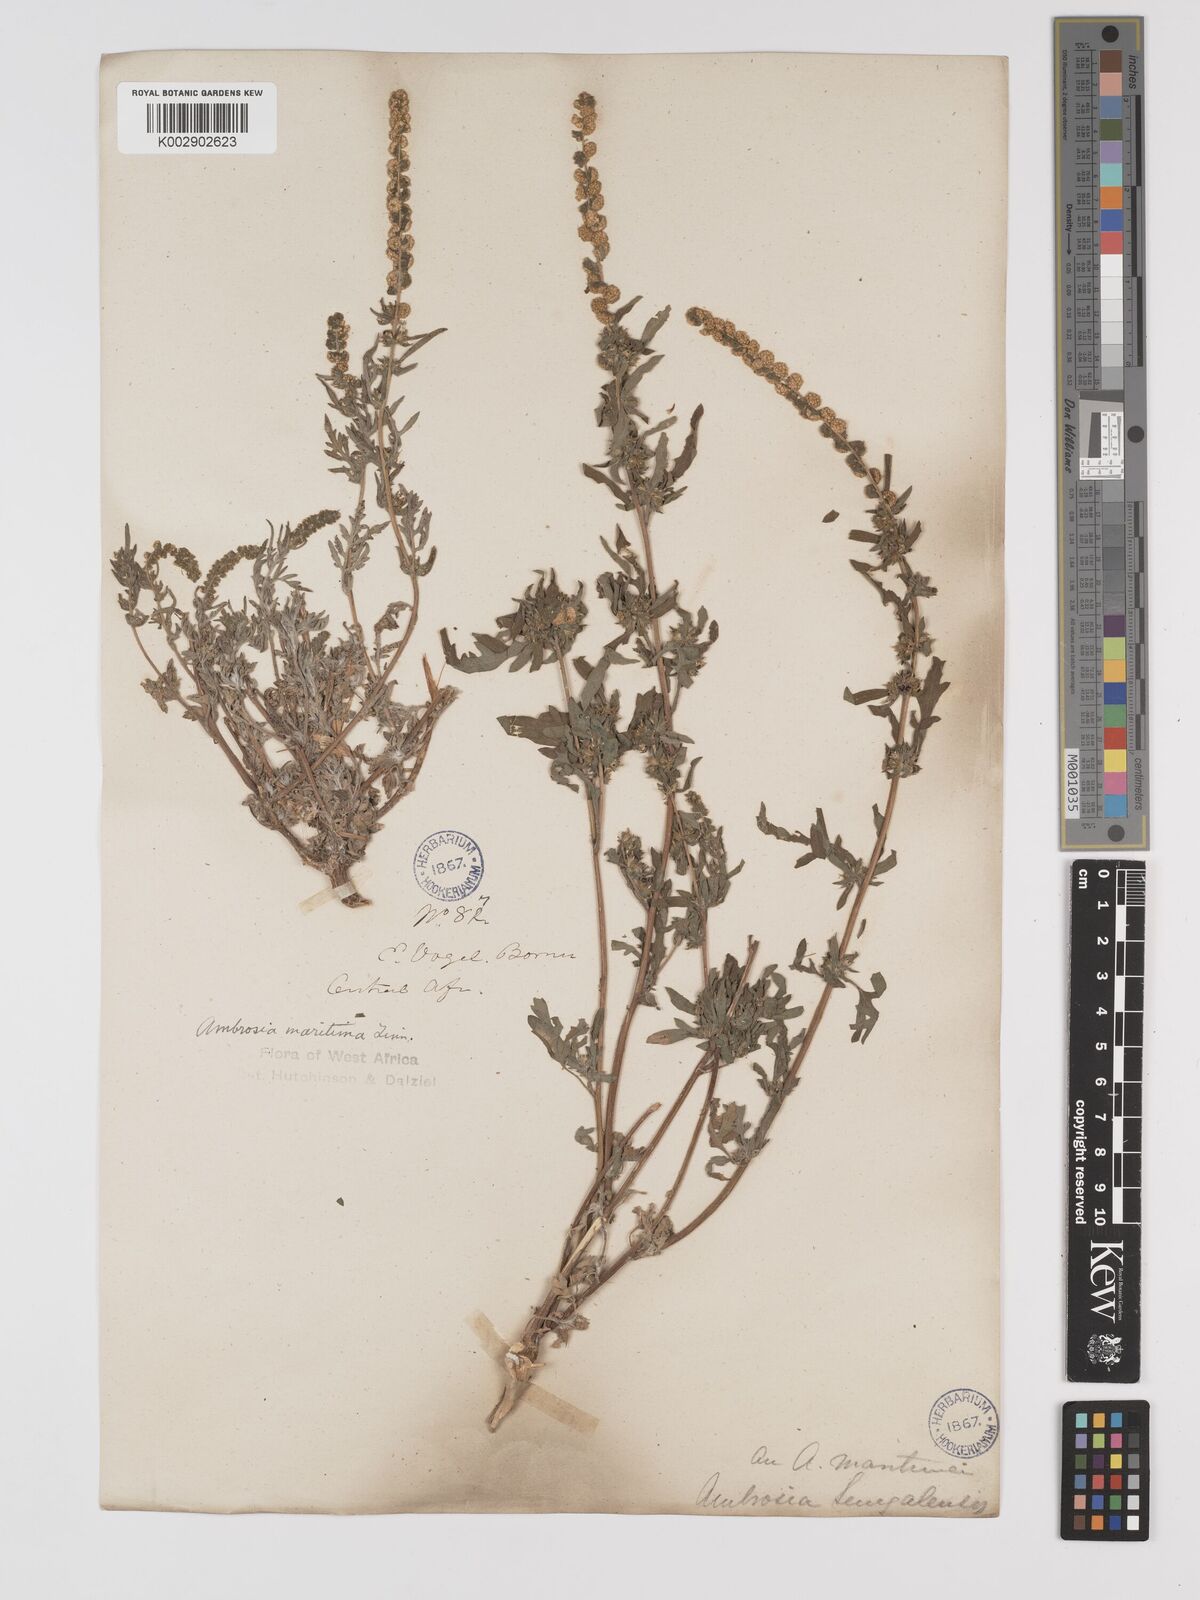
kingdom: Plantae
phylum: Tracheophyta
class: Magnoliopsida
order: Asterales
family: Asteraceae
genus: Ambrosia
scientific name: Ambrosia maritima
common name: Sea ambrosia
